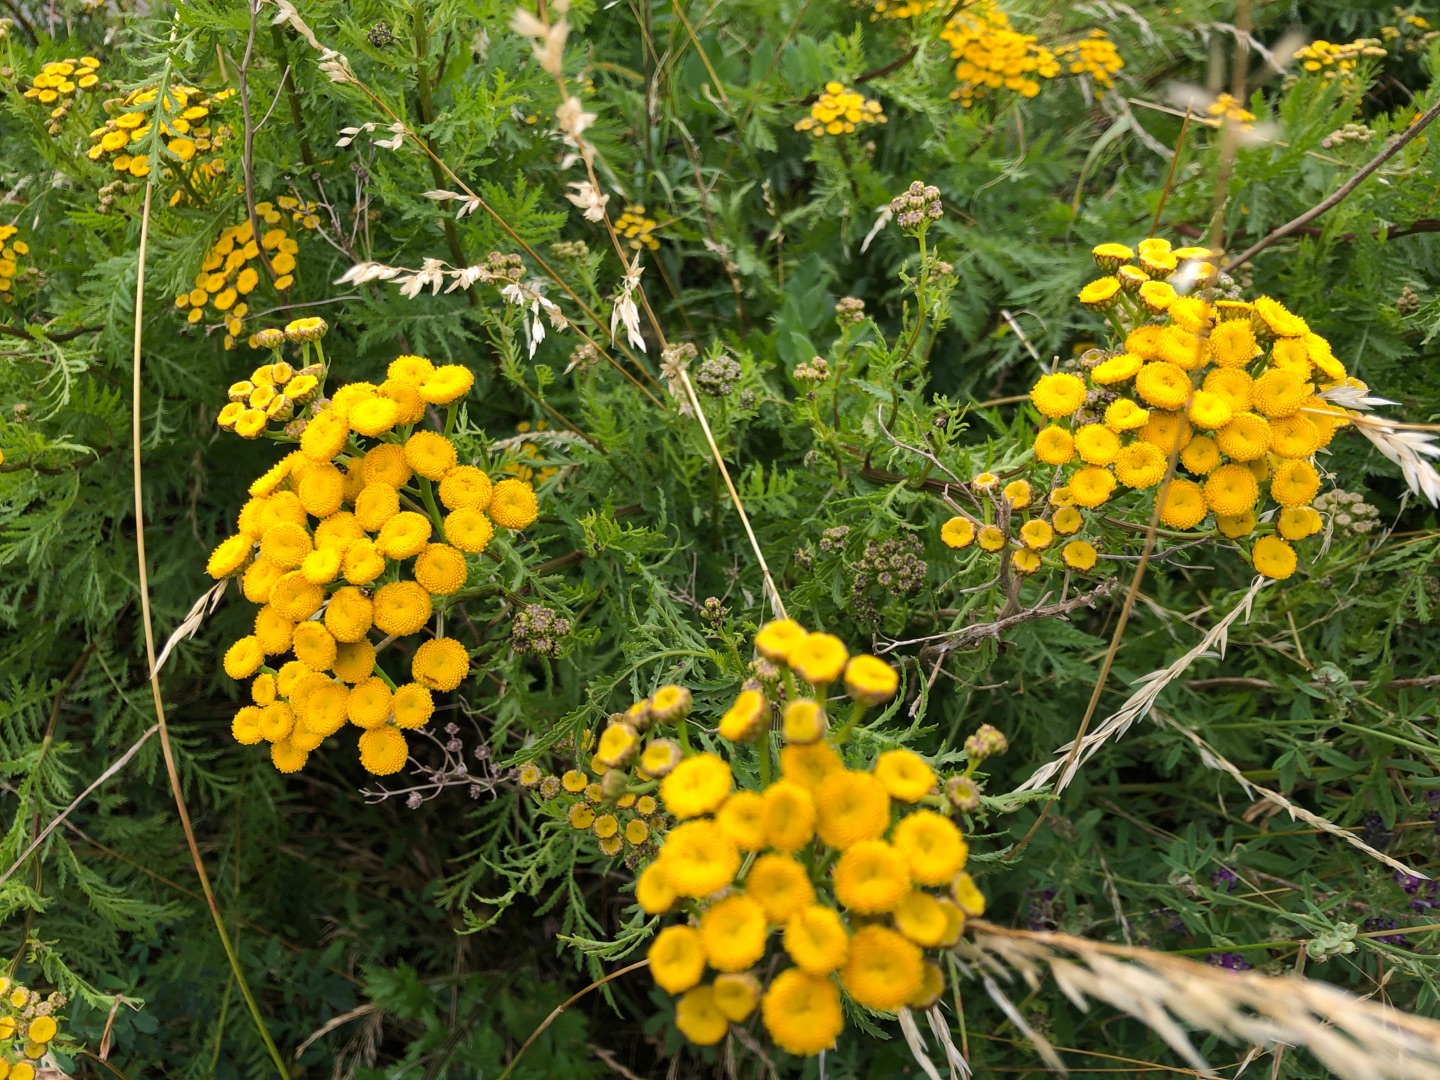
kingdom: Plantae
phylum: Tracheophyta
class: Magnoliopsida
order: Asterales
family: Asteraceae
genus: Tanacetum
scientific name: Tanacetum vulgare
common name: Rejnfan
